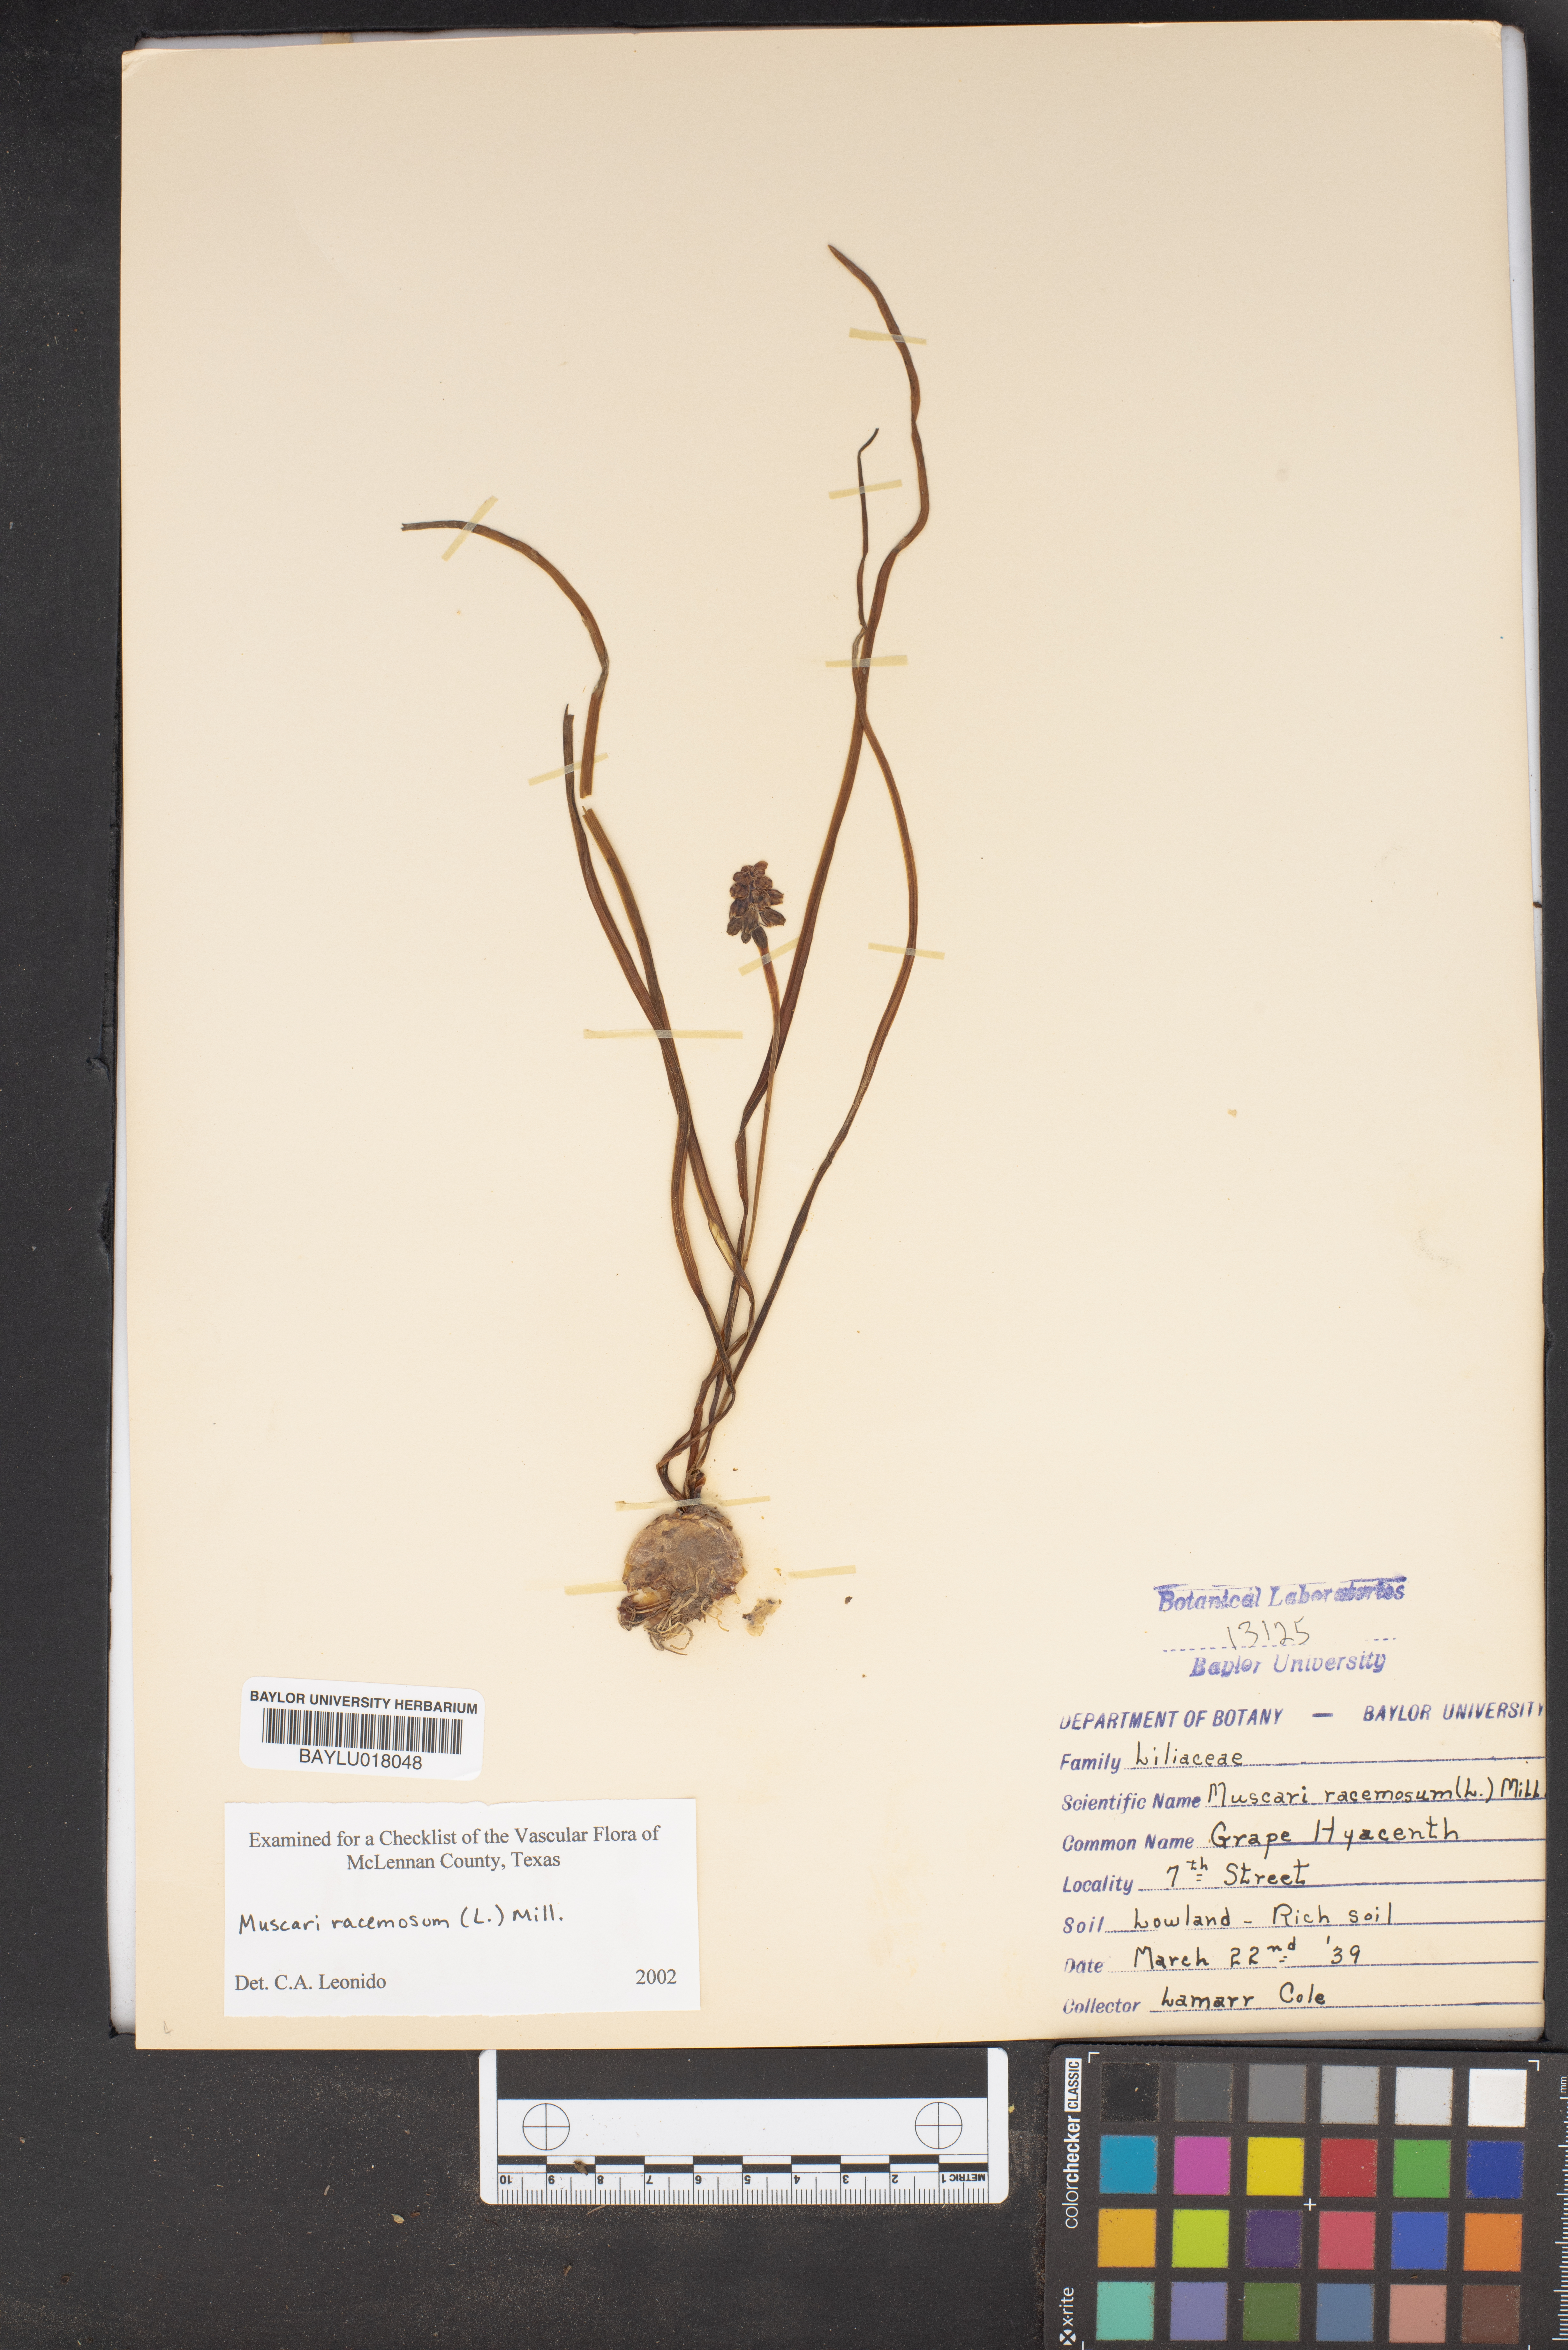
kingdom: Plantae
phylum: Tracheophyta
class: Liliopsida
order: Asparagales
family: Asparagaceae
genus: Muscarimia
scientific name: Muscarimia muscari
